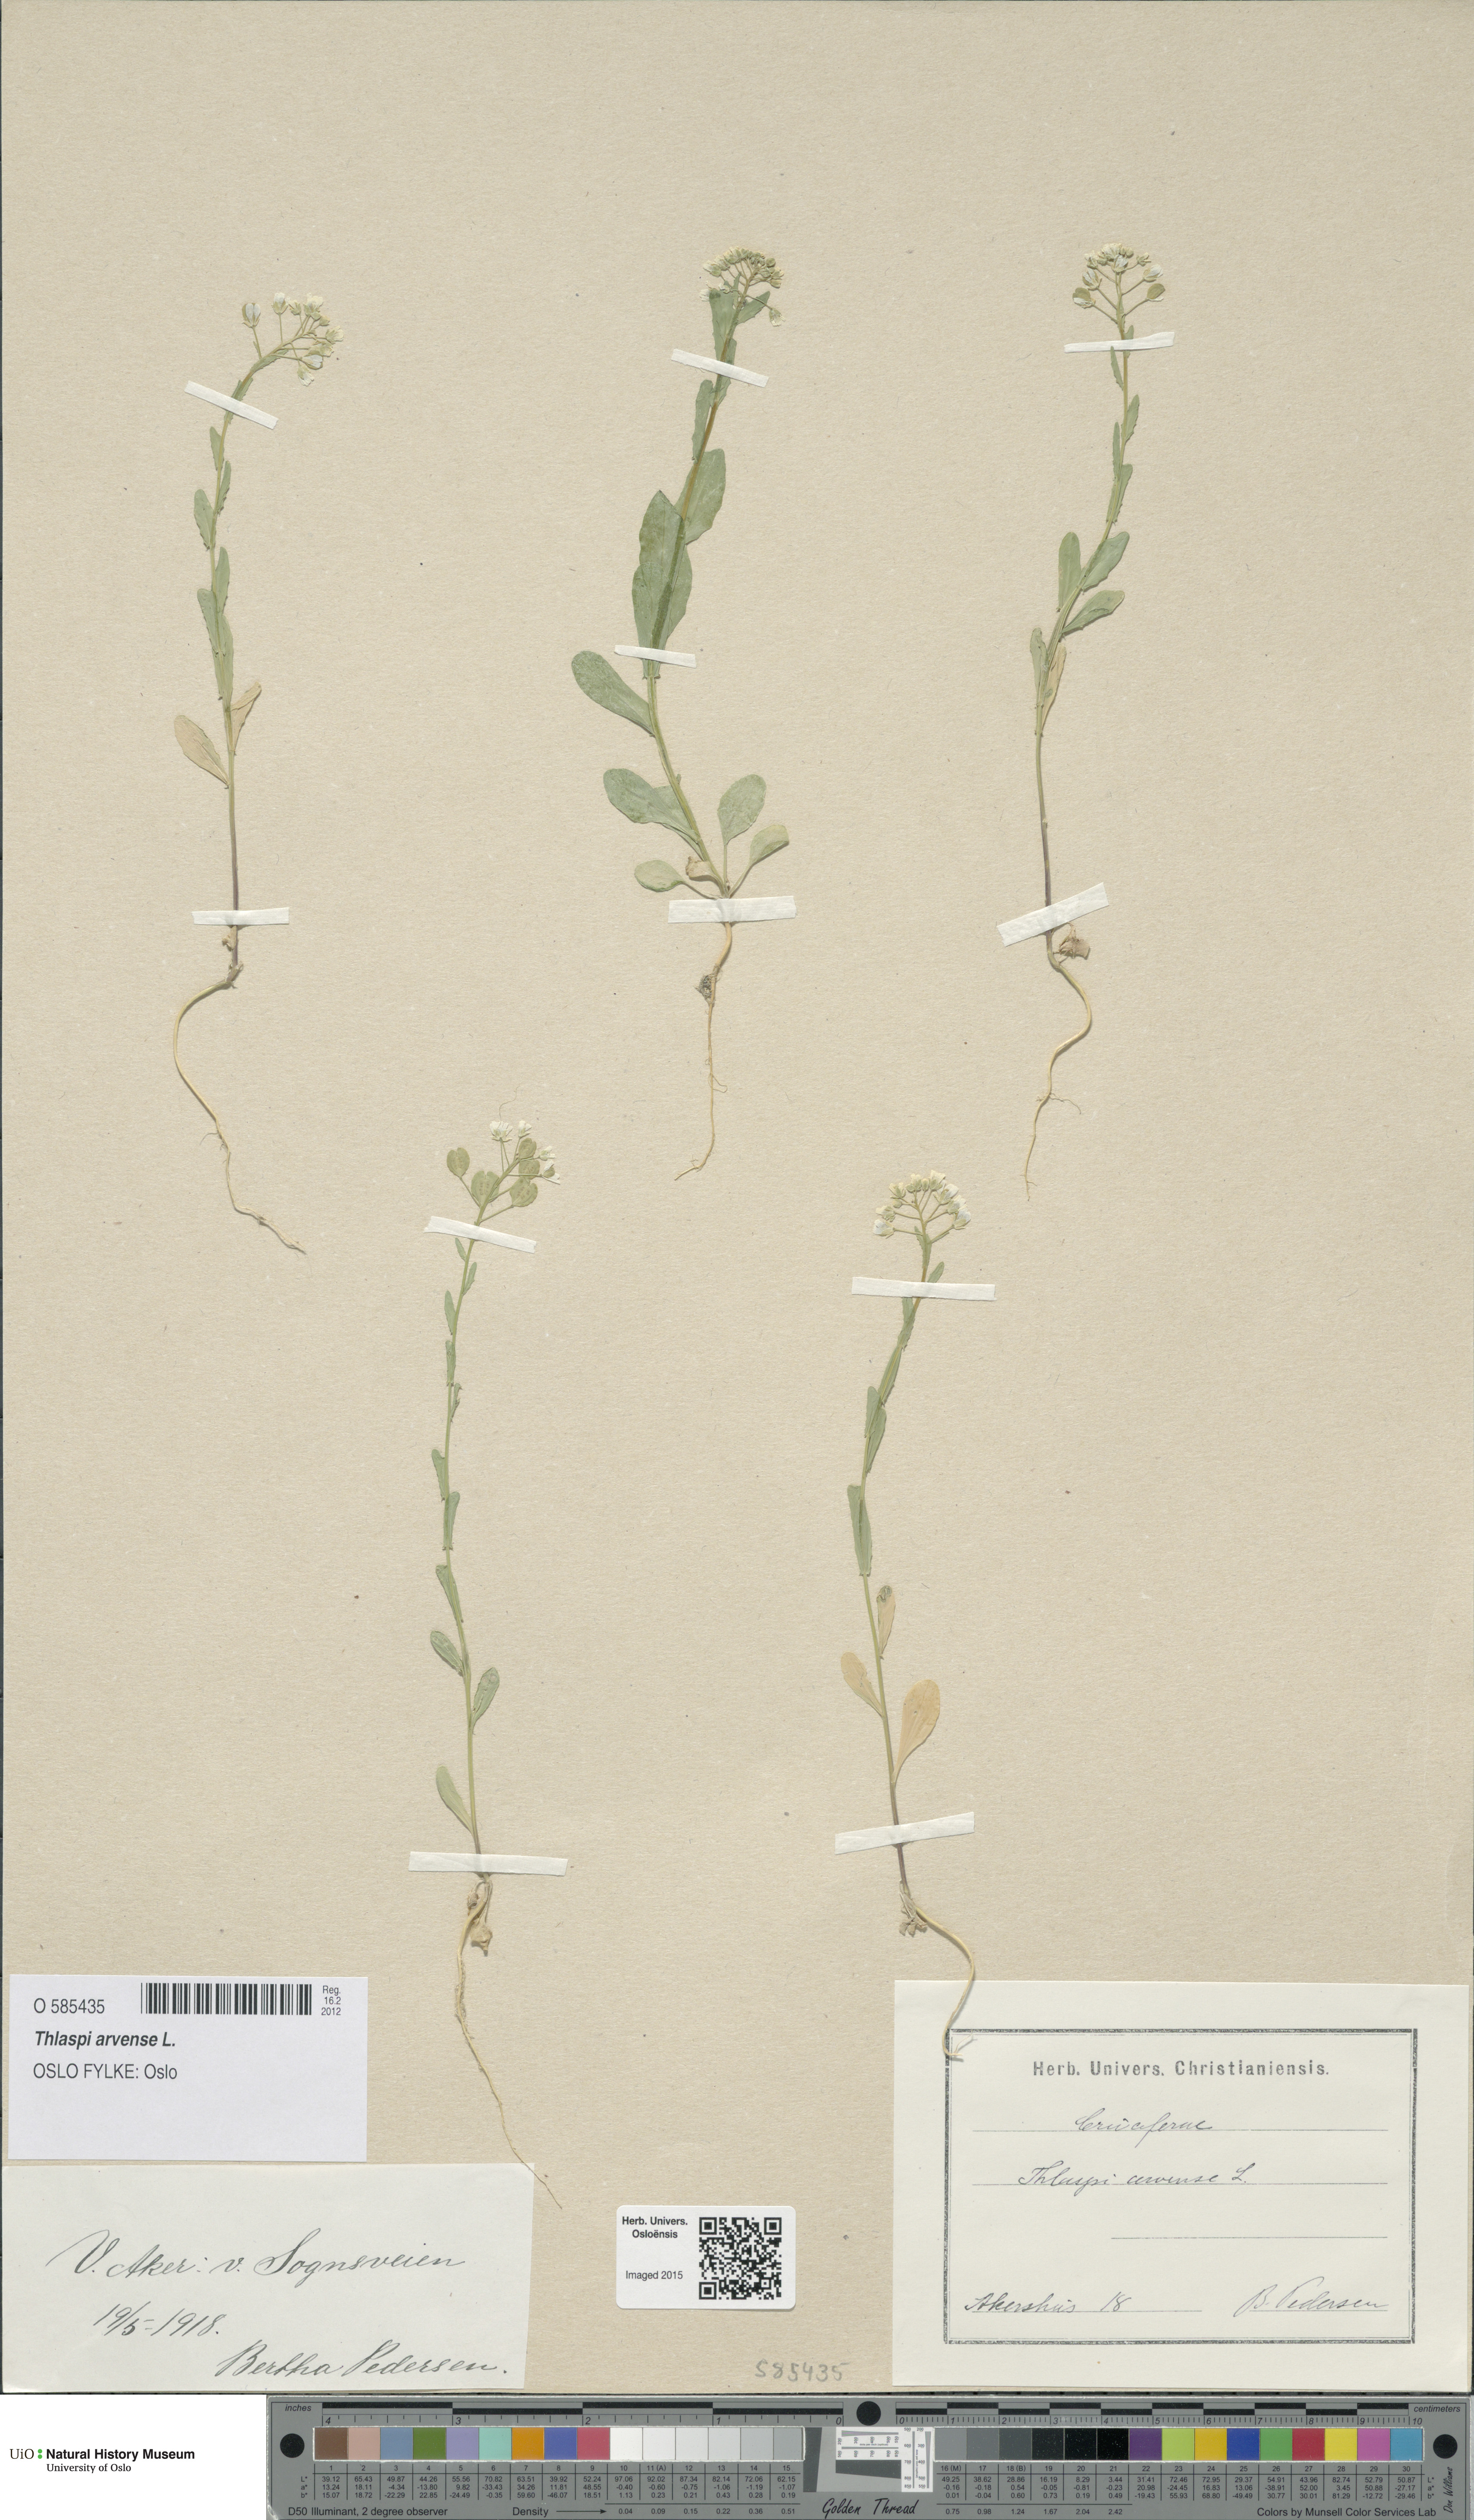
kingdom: Plantae
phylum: Tracheophyta
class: Magnoliopsida
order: Brassicales
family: Brassicaceae
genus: Thlaspi
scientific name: Thlaspi arvense
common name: Field pennycress
